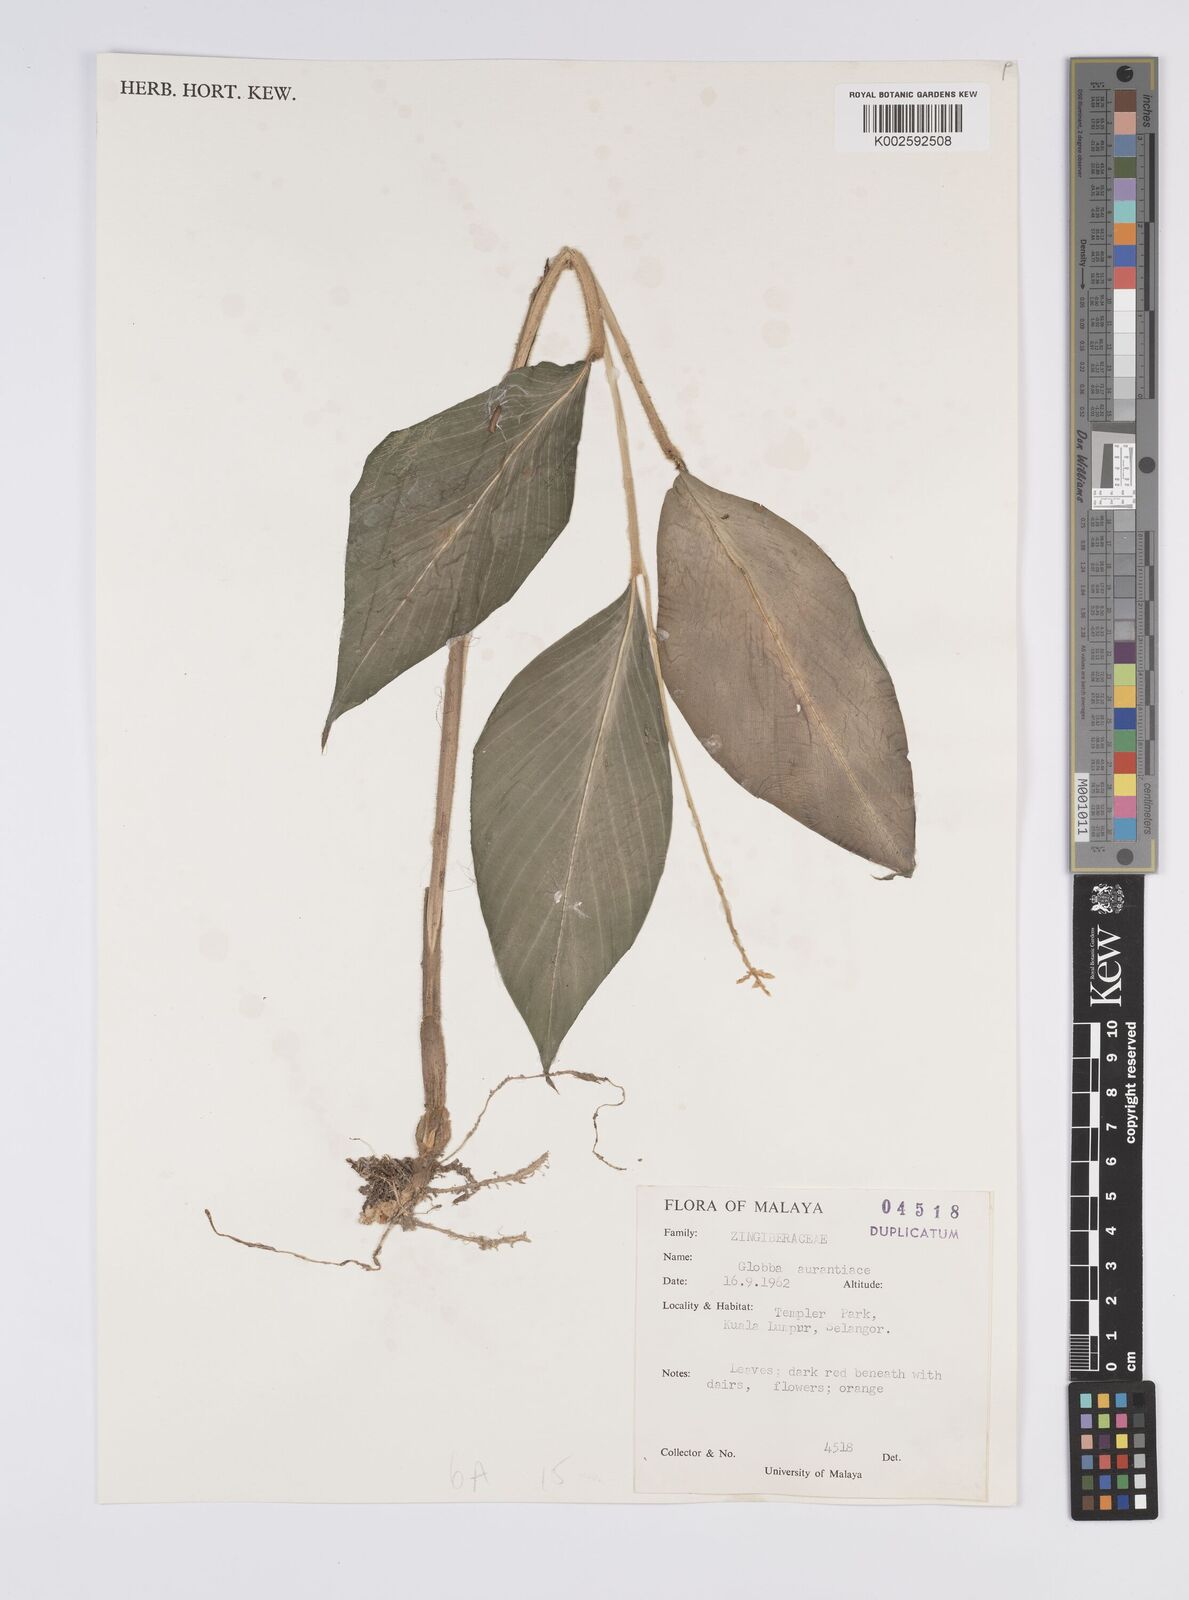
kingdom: Plantae
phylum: Tracheophyta
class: Liliopsida
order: Zingiberales
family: Zingiberaceae
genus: Globba
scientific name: Globba aurantiaca
